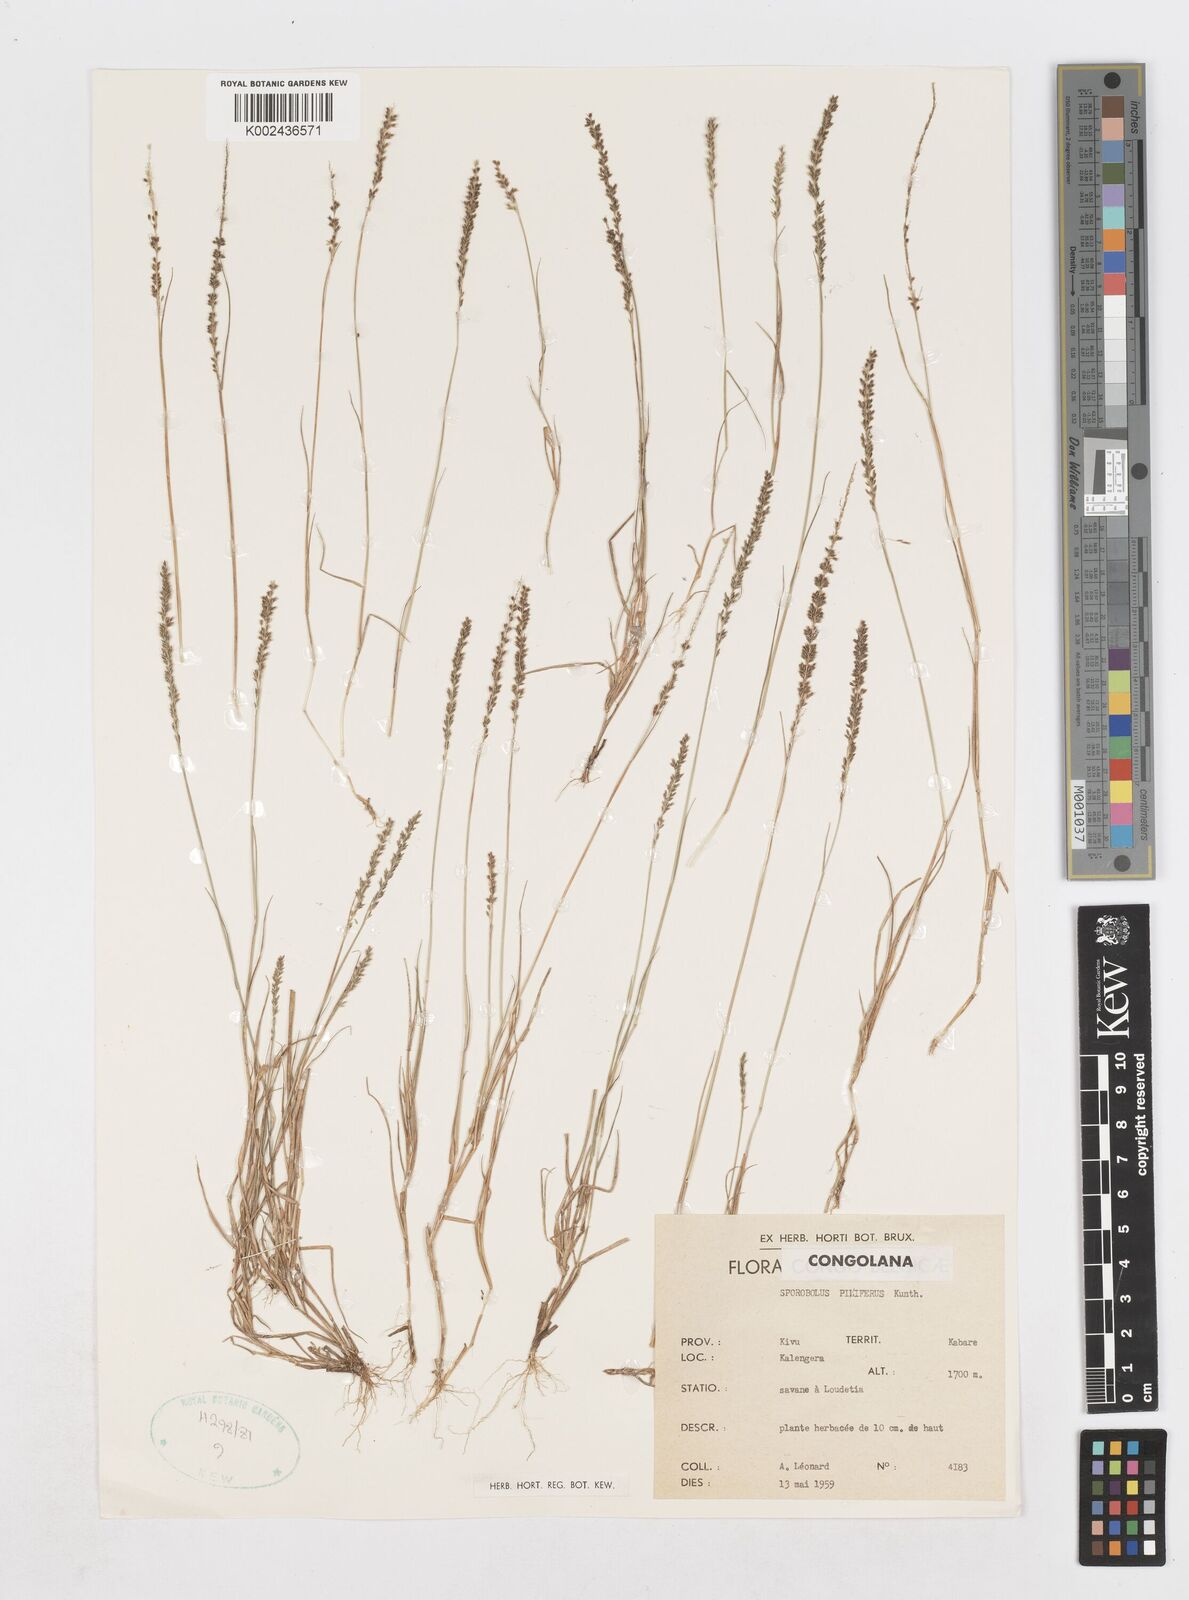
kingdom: Plantae
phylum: Tracheophyta
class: Liliopsida
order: Poales
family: Poaceae
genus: Sporobolus
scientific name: Sporobolus pilifer
